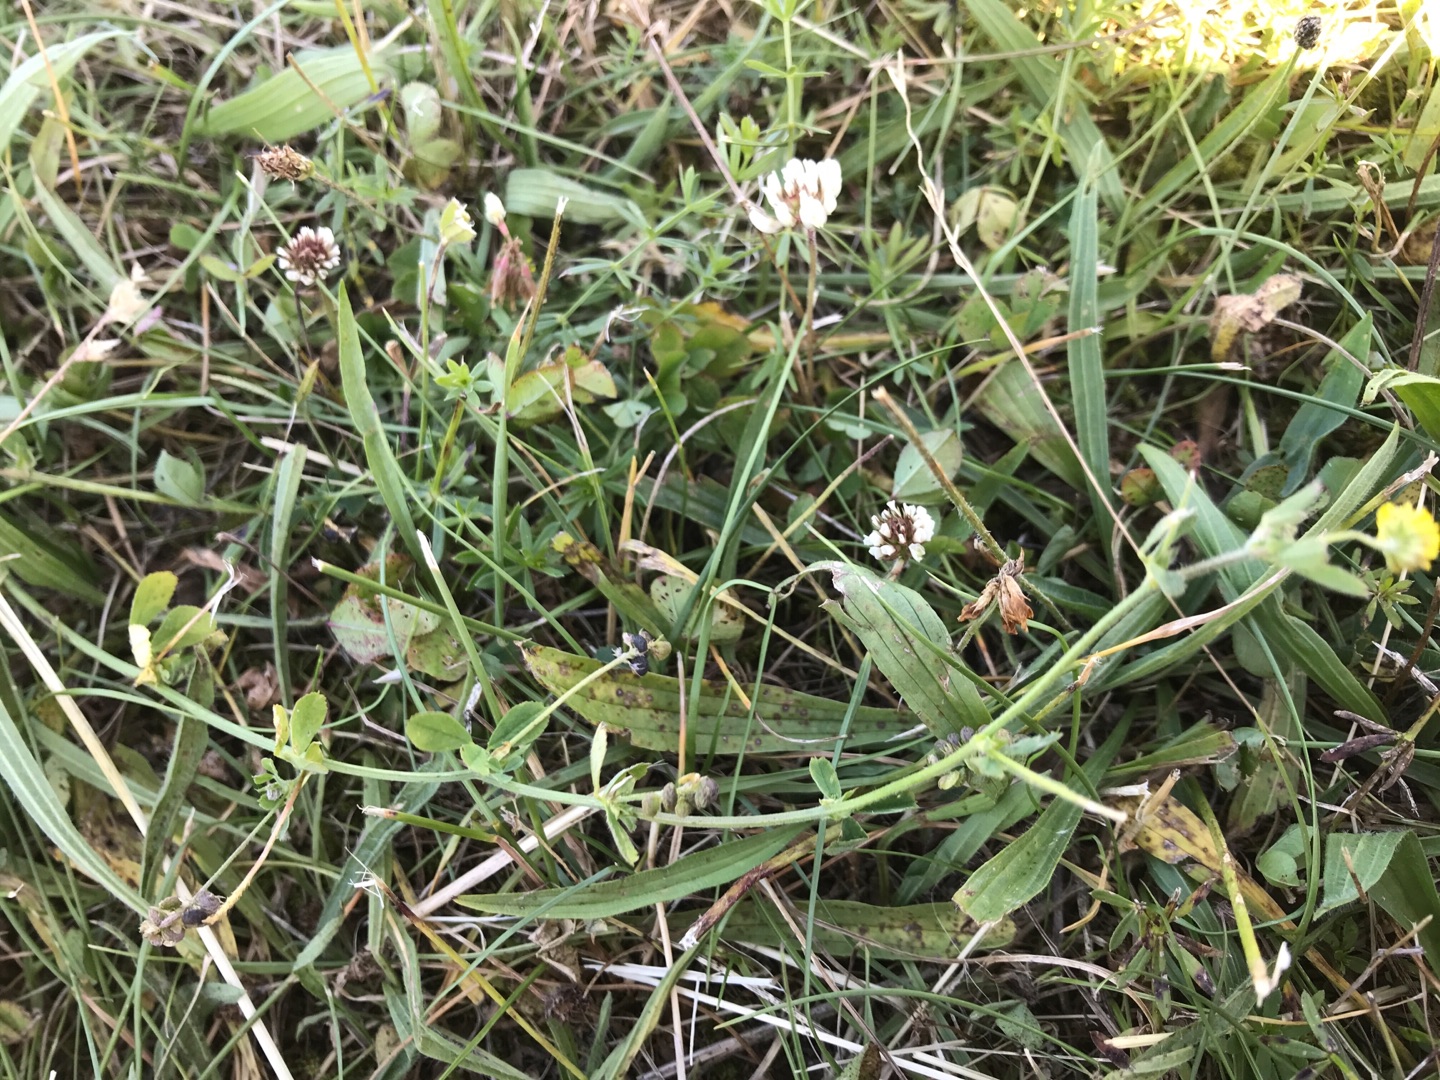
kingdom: Plantae
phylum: Tracheophyta
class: Magnoliopsida
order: Fabales
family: Fabaceae
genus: Medicago
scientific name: Medicago lupulina
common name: Humle-sneglebælg
